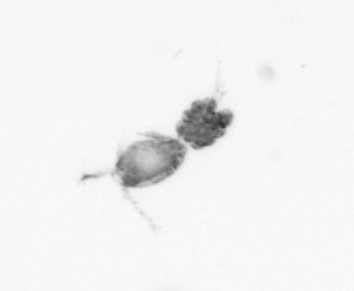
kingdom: Animalia
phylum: Arthropoda
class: Copepoda
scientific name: Copepoda
